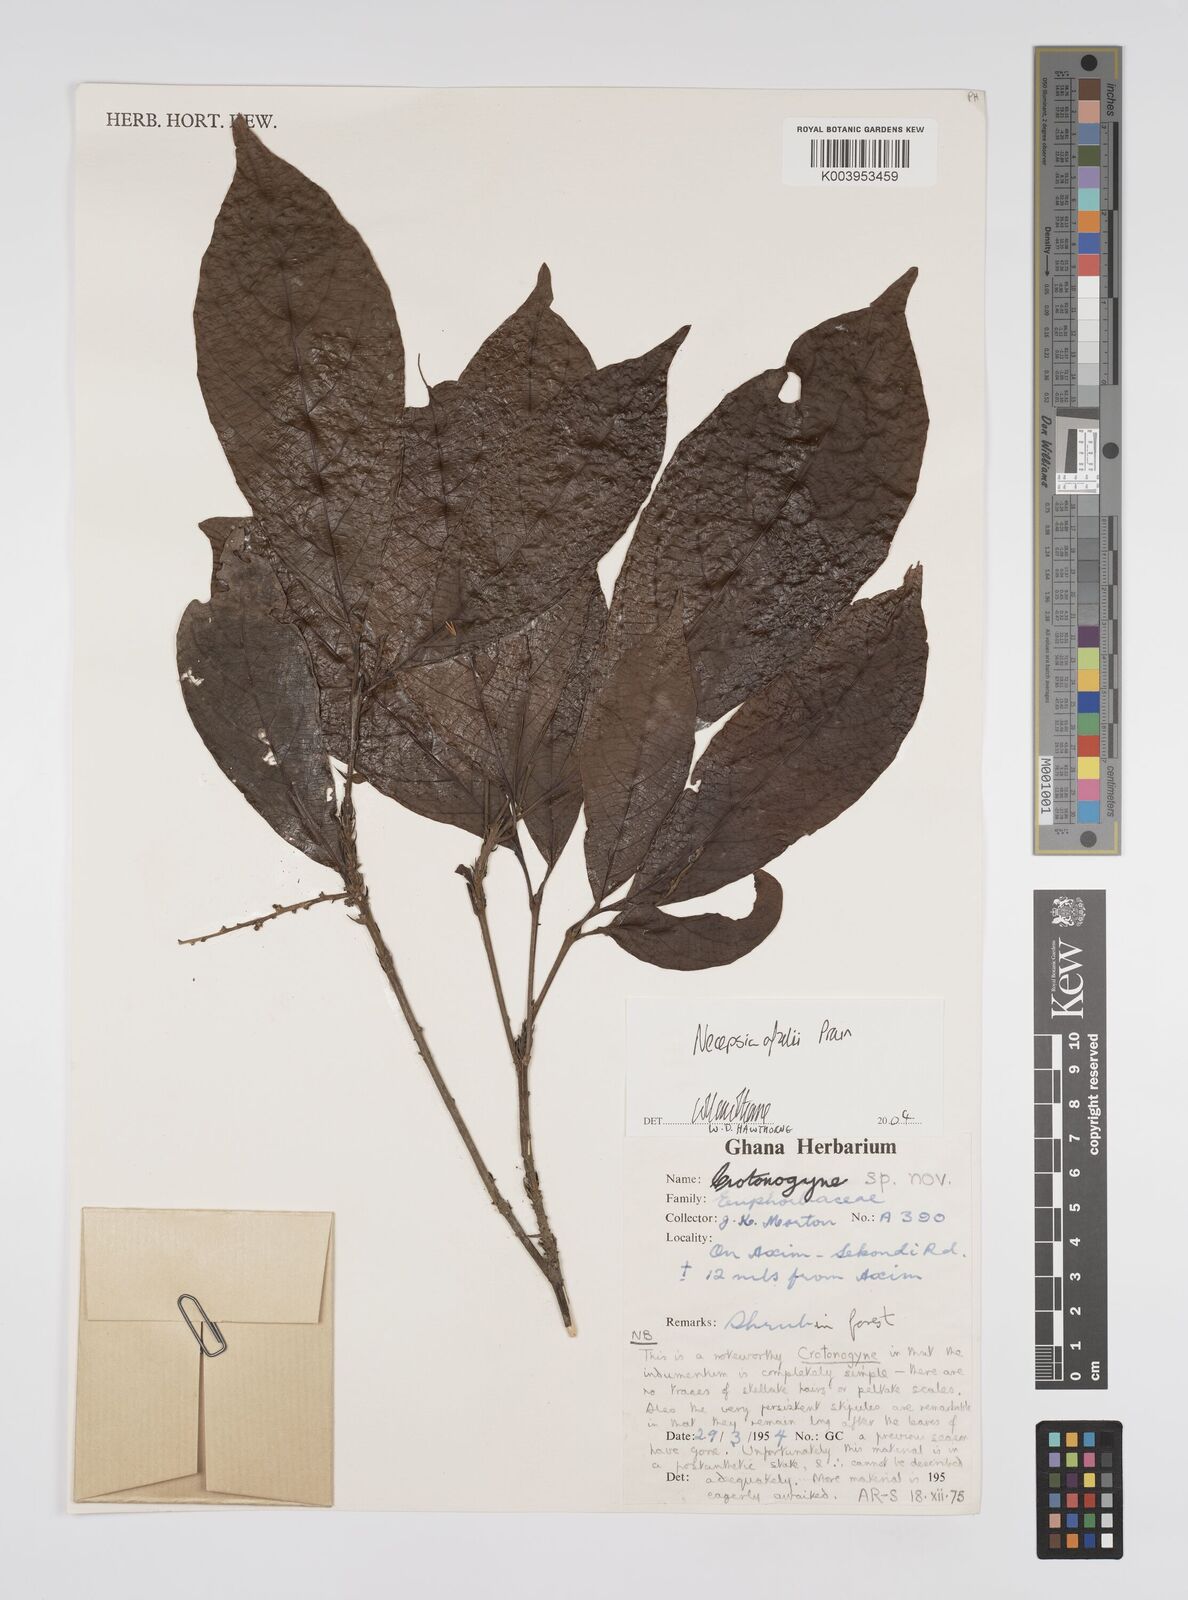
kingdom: Plantae
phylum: Tracheophyta
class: Magnoliopsida
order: Malpighiales
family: Euphorbiaceae
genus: Necepsia
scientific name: Necepsia afzelii
